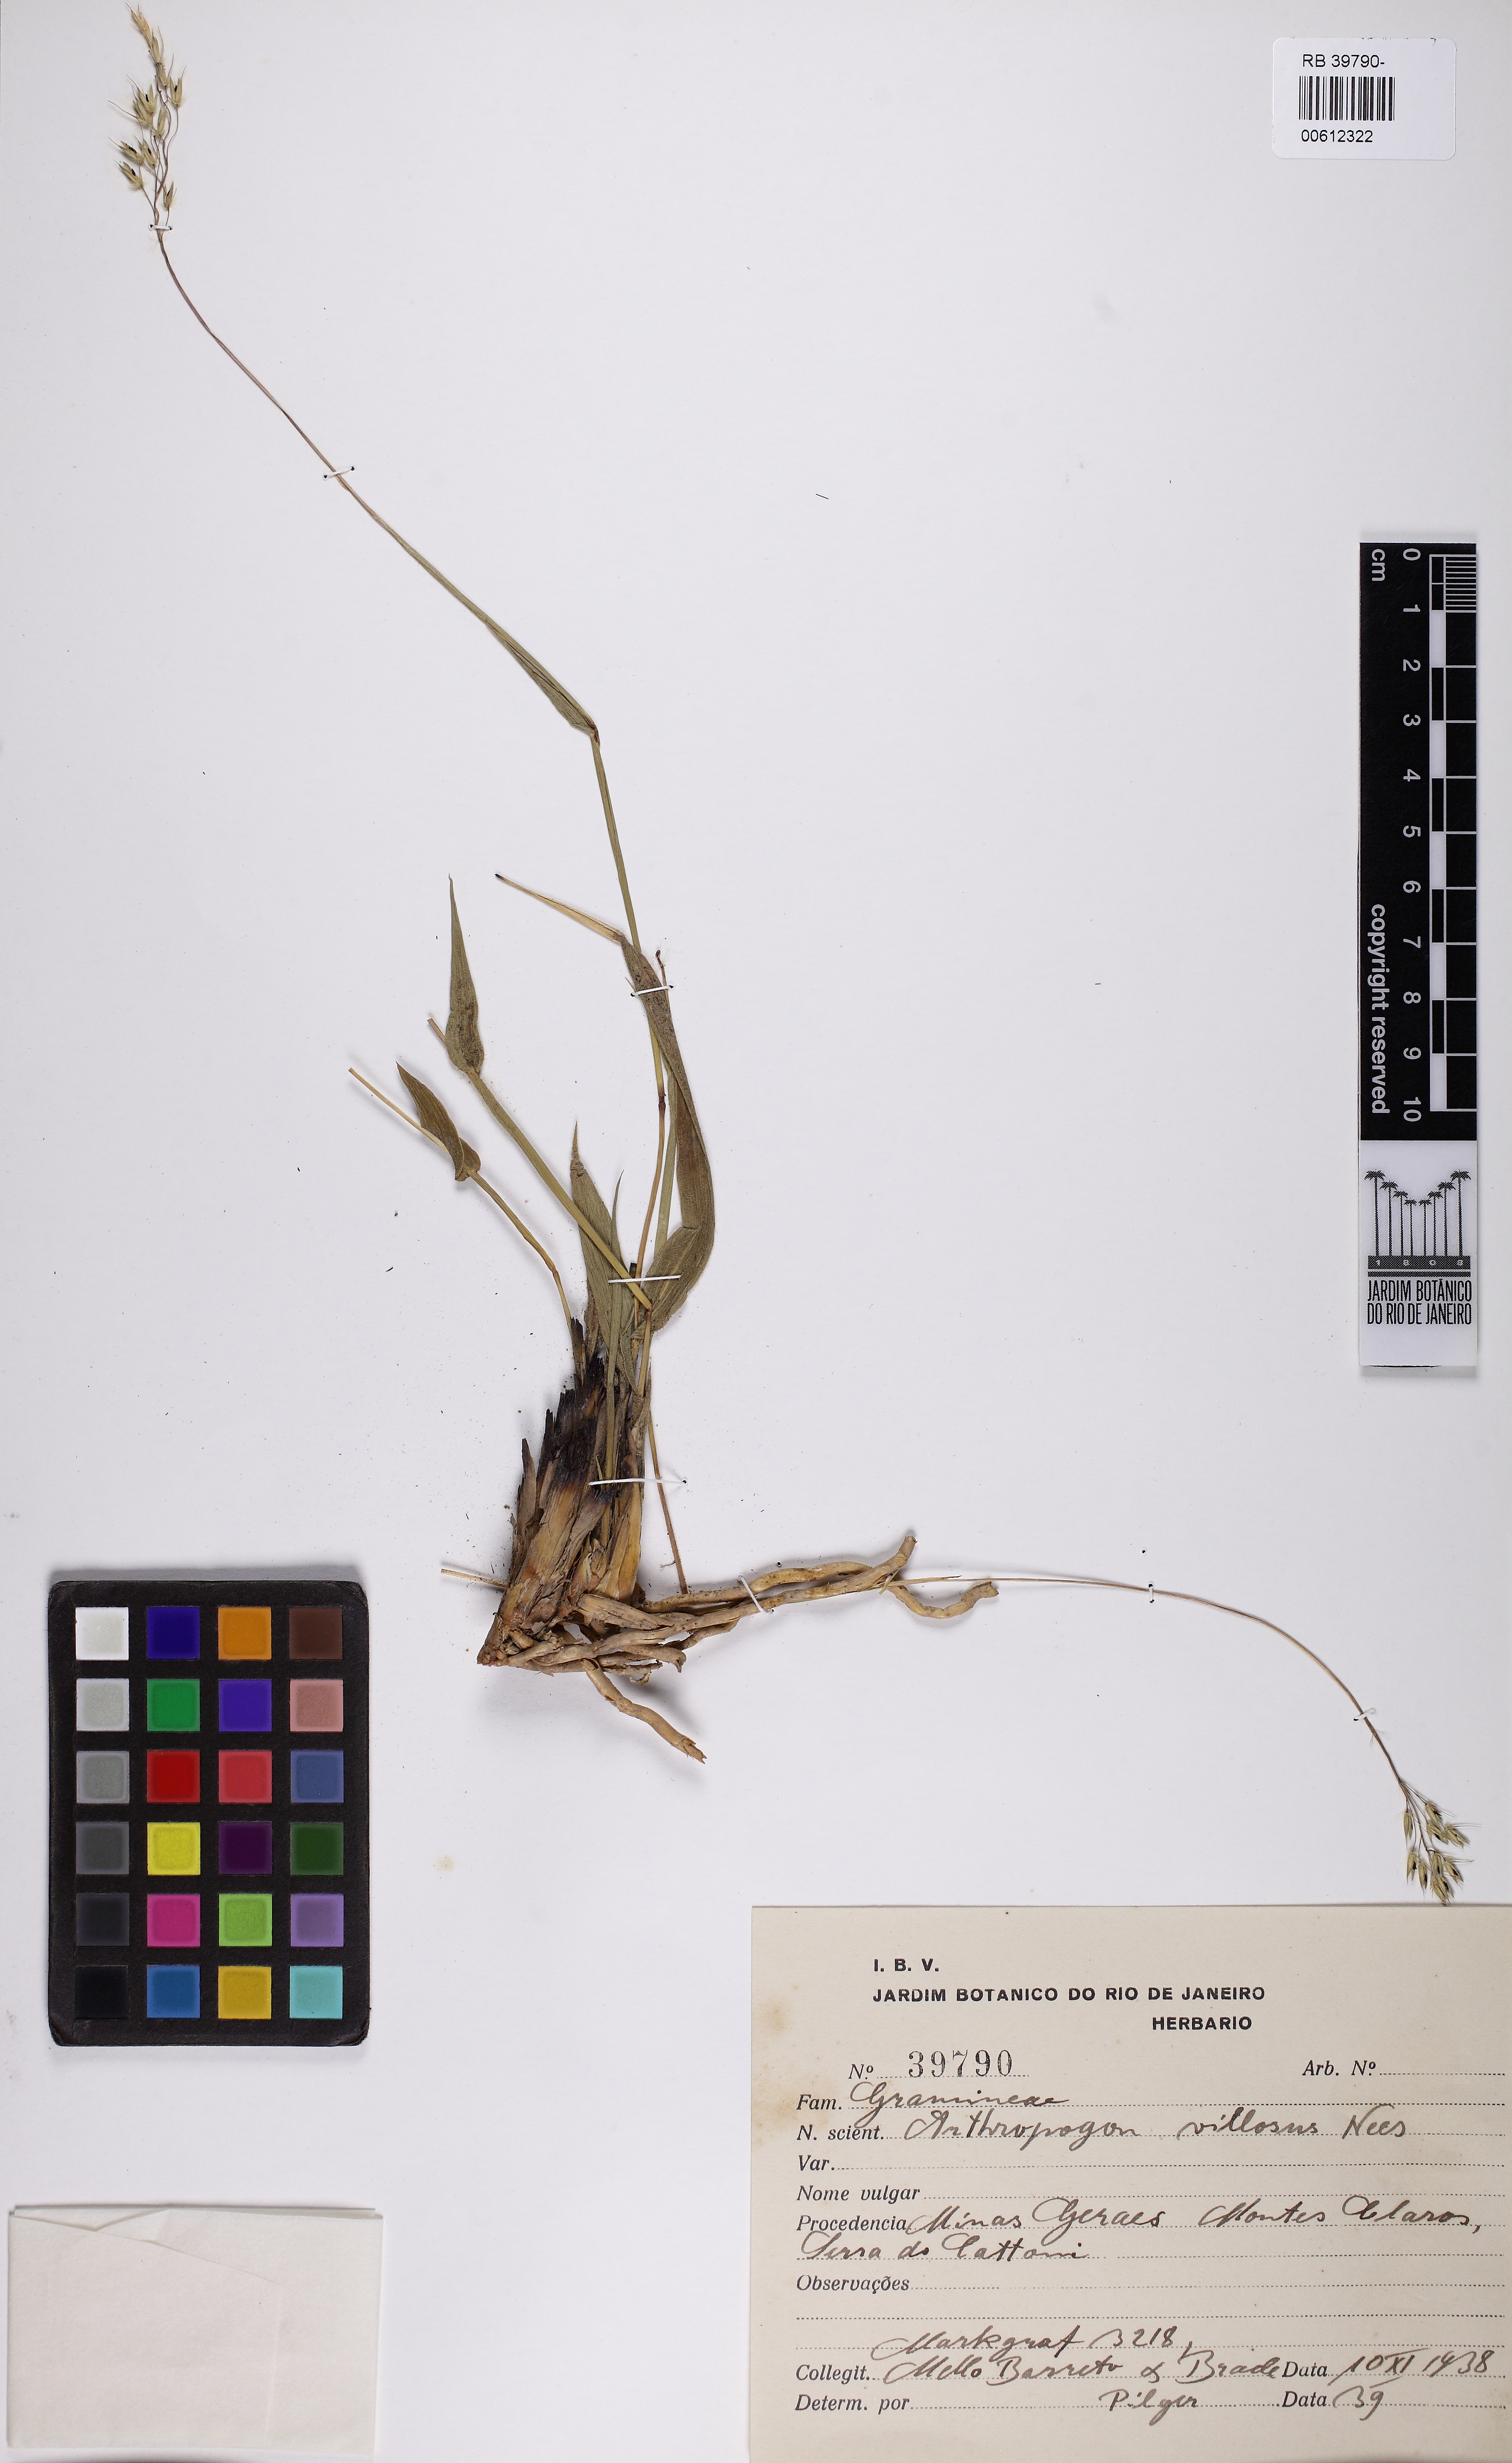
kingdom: Plantae
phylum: Tracheophyta
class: Liliopsida
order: Poales
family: Poaceae
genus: Arthropogon
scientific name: Arthropogon villosus
